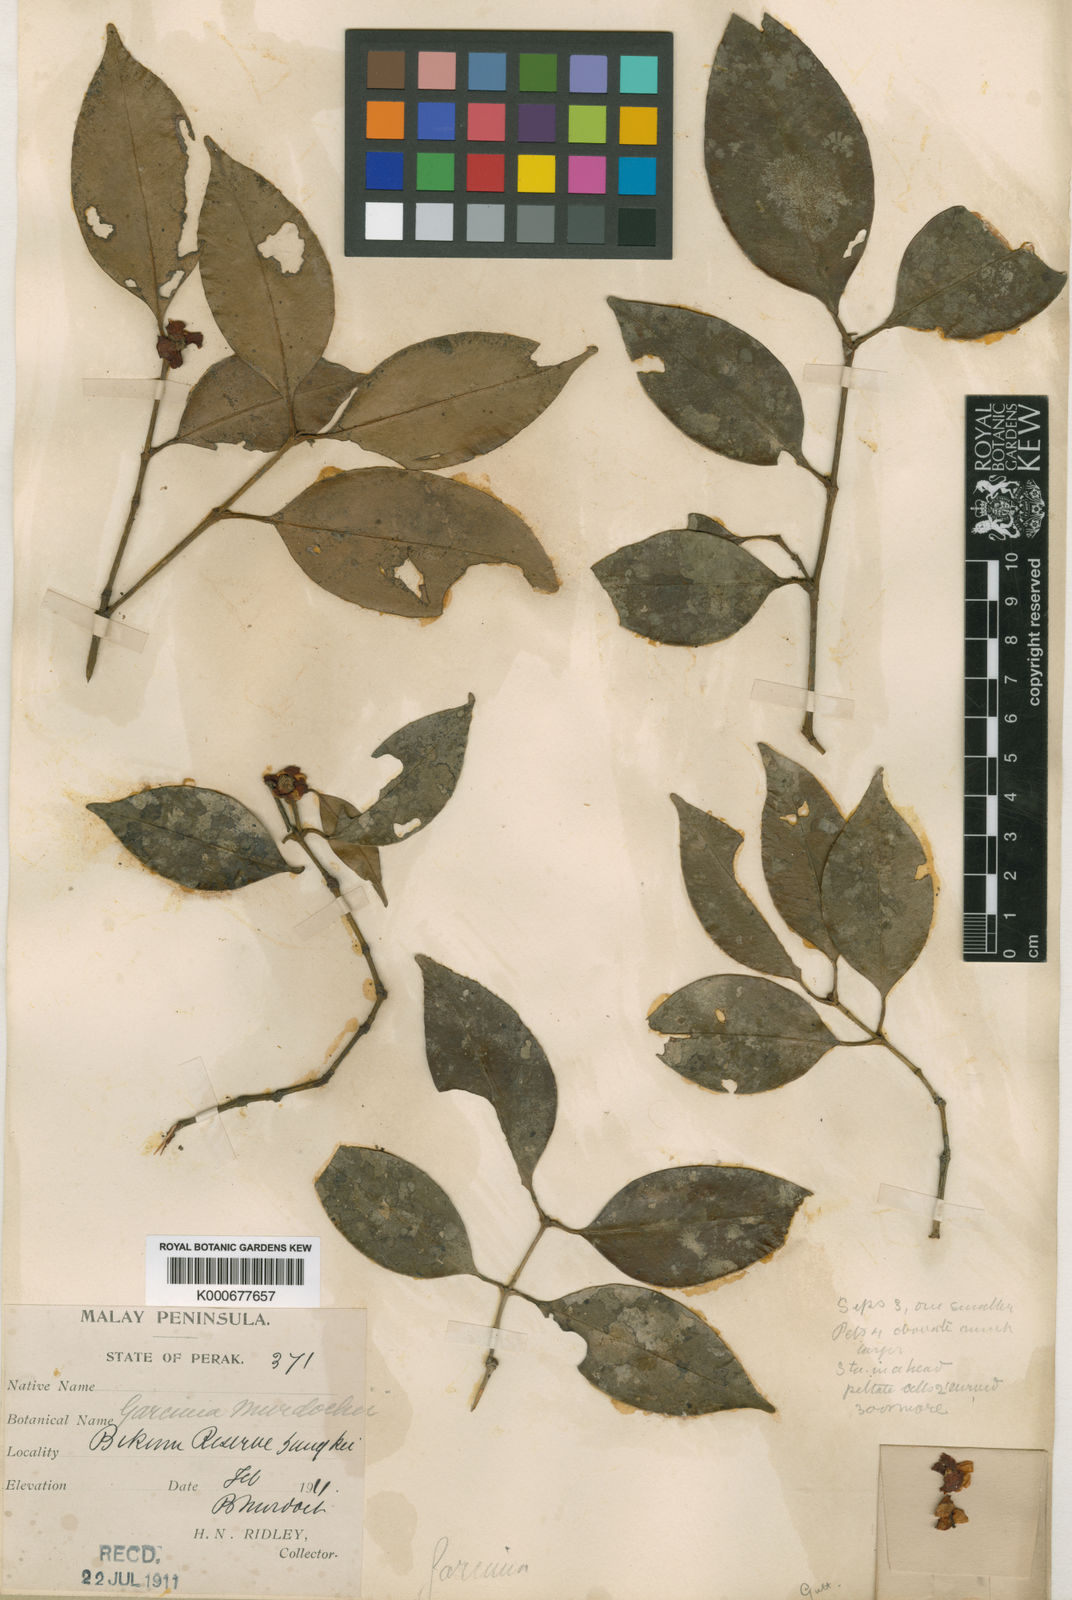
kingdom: Plantae
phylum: Tracheophyta
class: Magnoliopsida
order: Malpighiales
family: Clusiaceae
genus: Garcinia
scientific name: Garcinia murdochii
